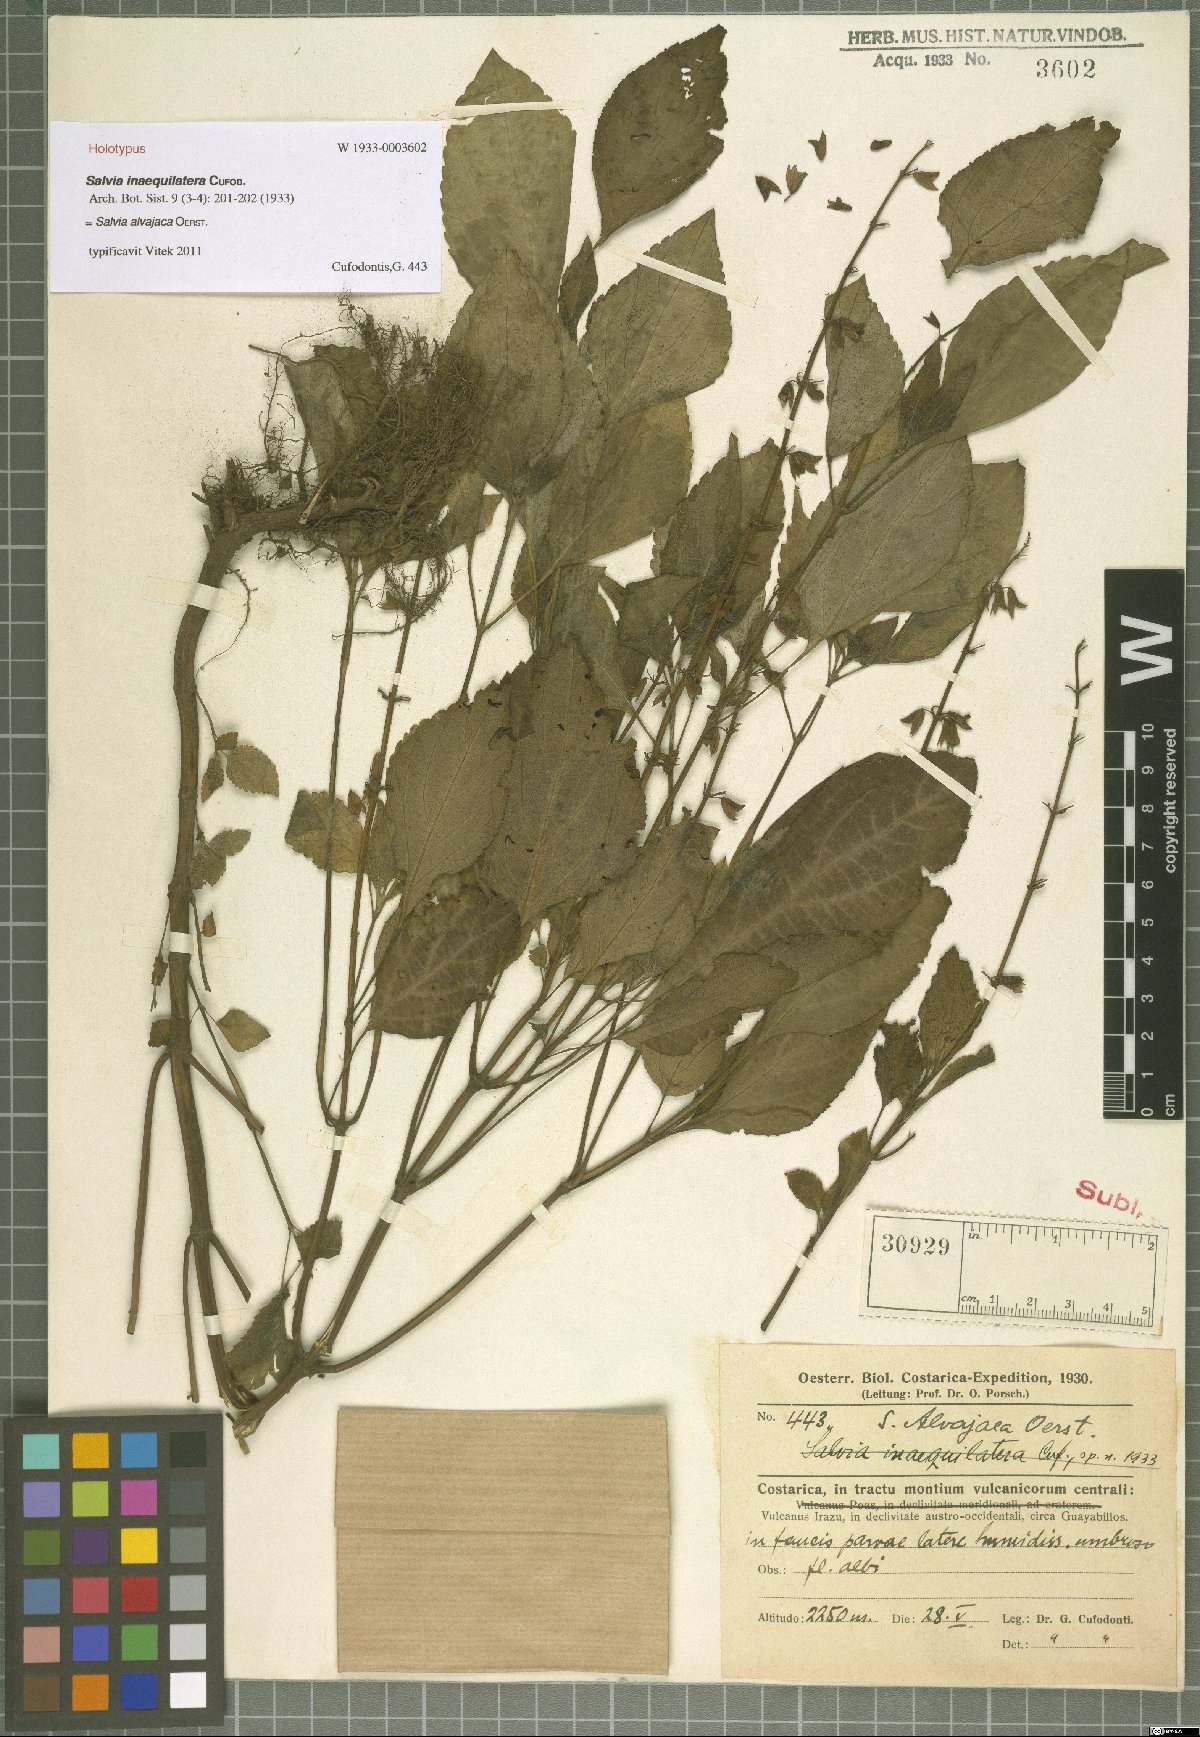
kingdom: Plantae
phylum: Tracheophyta
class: Magnoliopsida
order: Lamiales
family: Lamiaceae
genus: Salvia
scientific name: Salvia alvajaca
